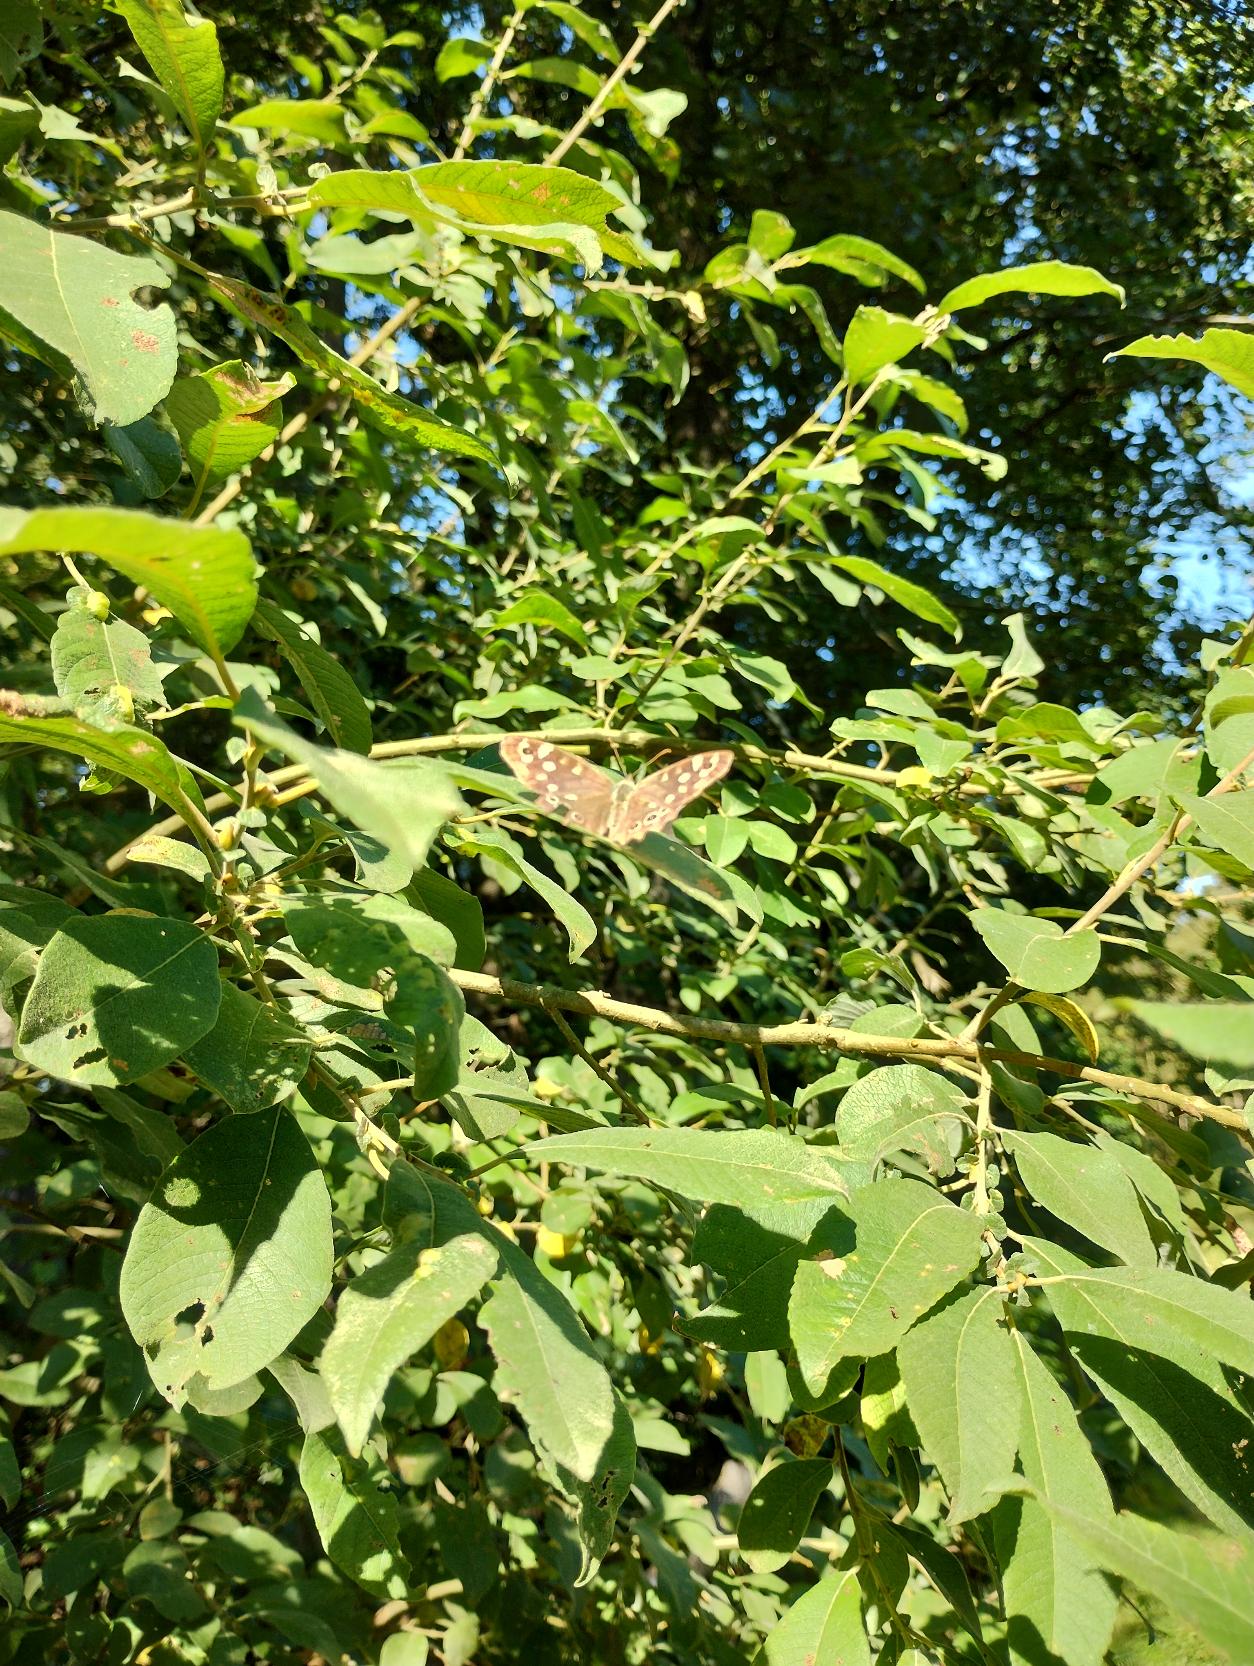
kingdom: Animalia
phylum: Arthropoda
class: Insecta
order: Lepidoptera
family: Nymphalidae
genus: Pararge
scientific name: Pararge aegeria
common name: Skovrandøje
